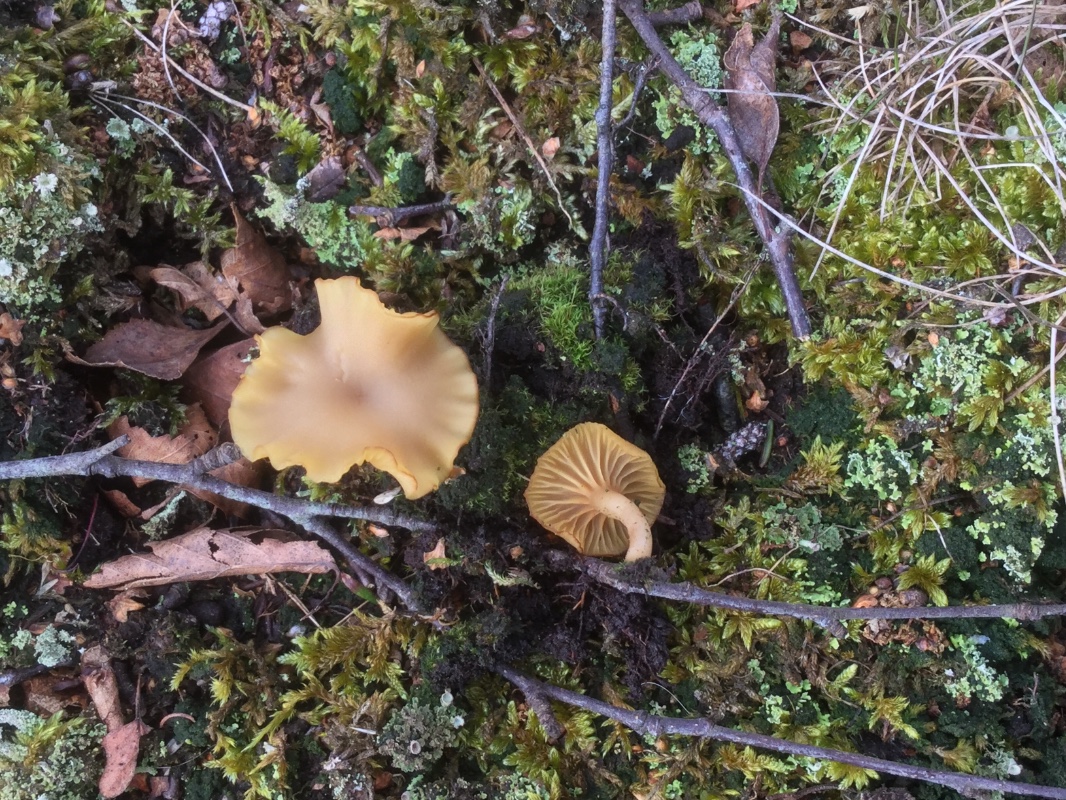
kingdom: Fungi
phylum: Basidiomycota
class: Agaricomycetes
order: Agaricales
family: Hygrophoraceae
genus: Lichenomphalia
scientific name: Lichenomphalia umbellifera
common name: tørve-lavhat
